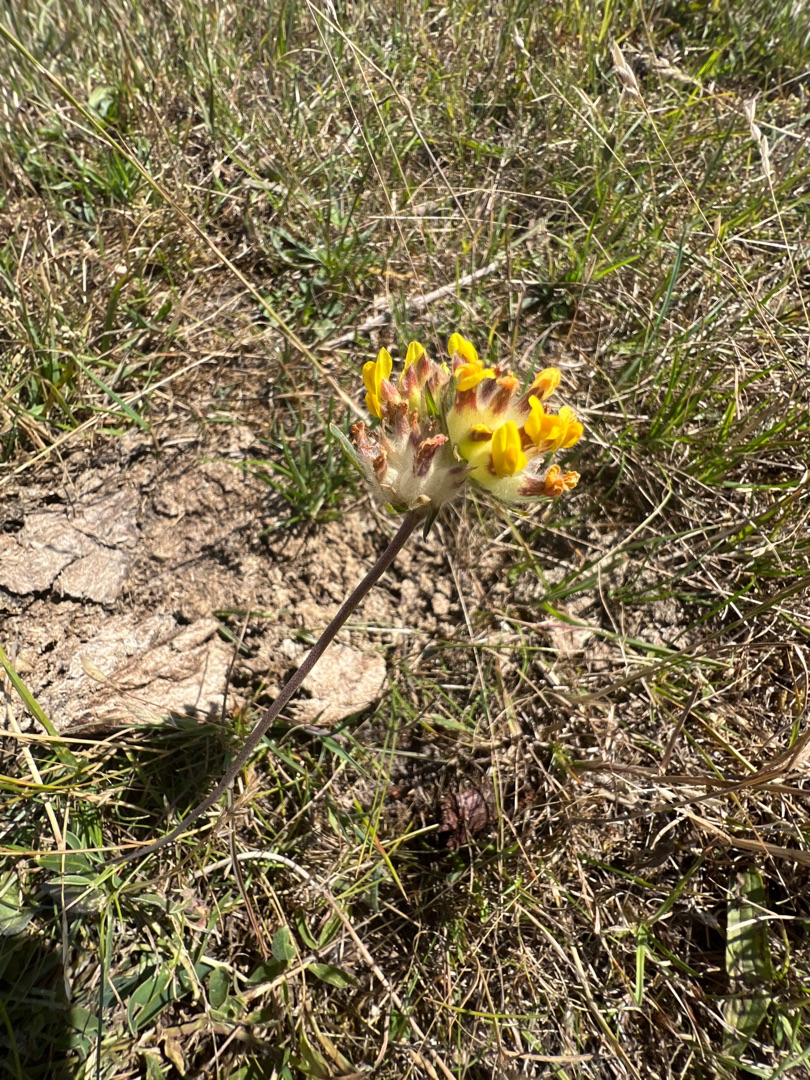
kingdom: Plantae
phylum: Tracheophyta
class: Magnoliopsida
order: Fabales
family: Fabaceae
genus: Anthyllis
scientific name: Anthyllis vulneraria
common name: Rundbælg
